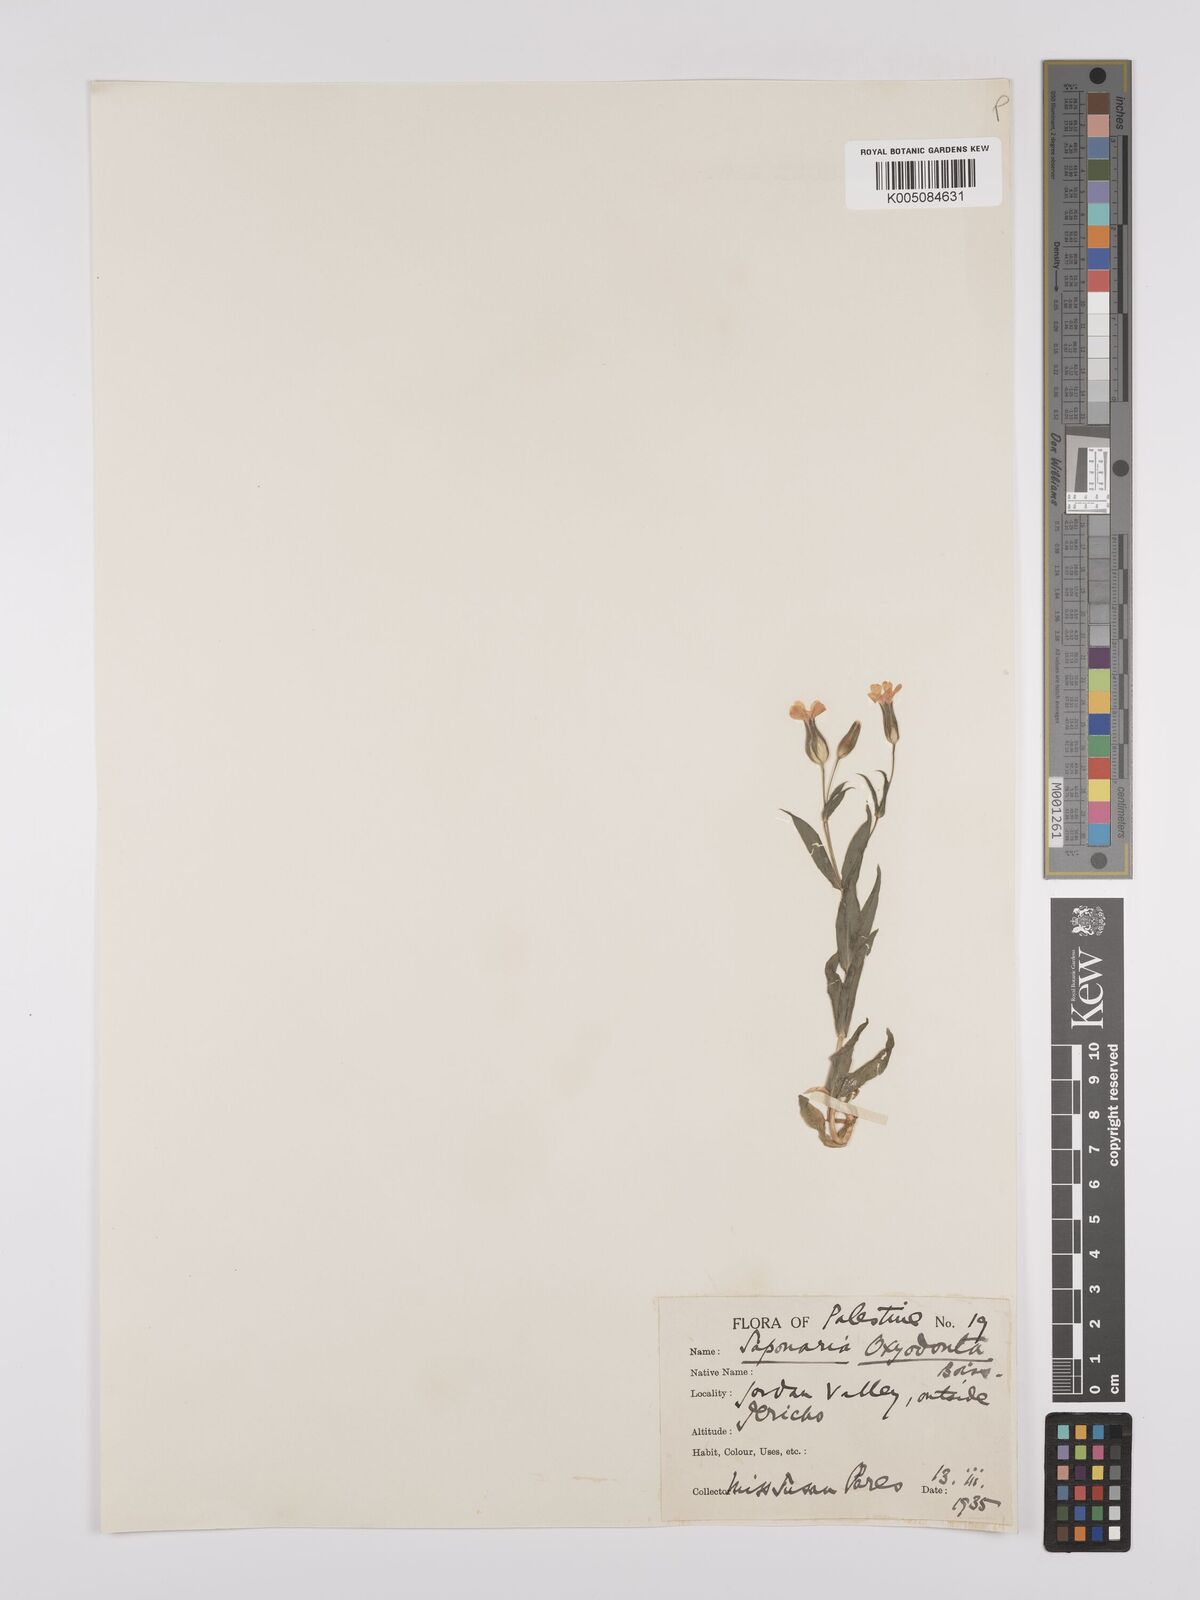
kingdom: Plantae
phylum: Tracheophyta
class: Magnoliopsida
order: Caryophyllales
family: Caryophyllaceae
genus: Gypsophila
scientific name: Gypsophila vaccaria
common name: Cow soapwort
